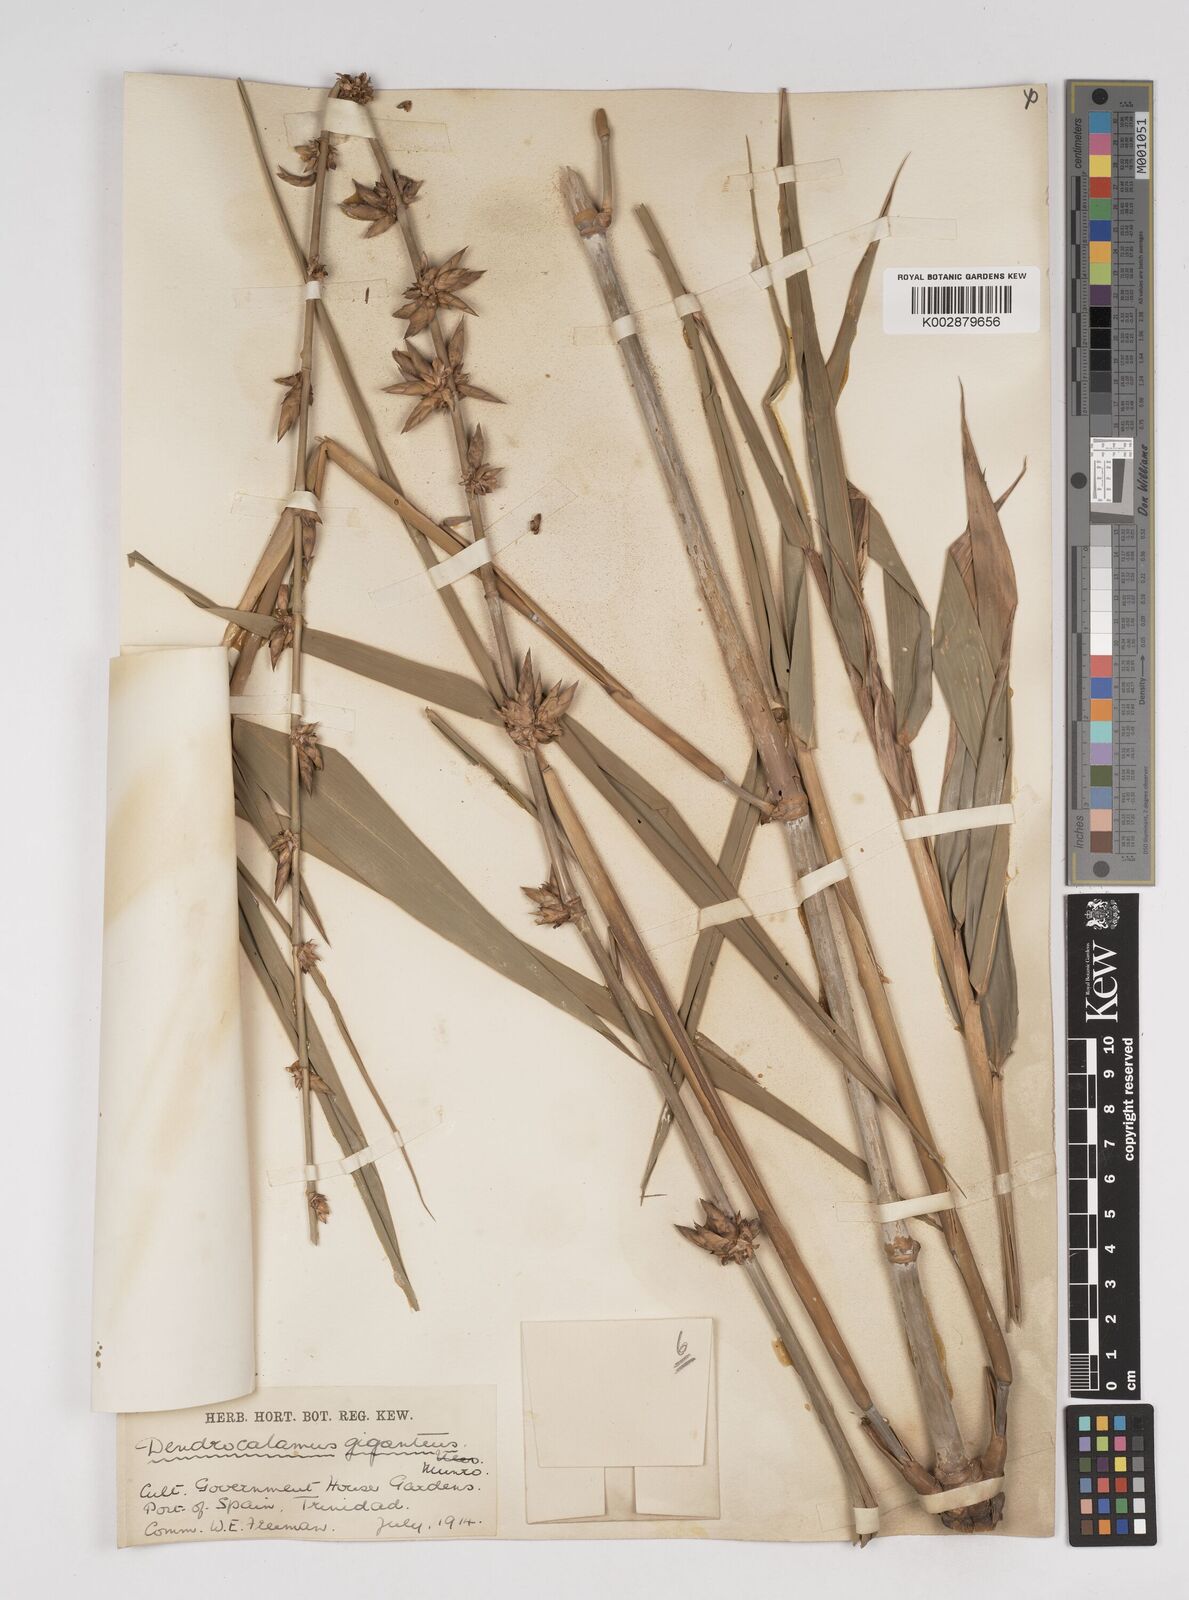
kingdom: Plantae
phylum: Tracheophyta
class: Liliopsida
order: Poales
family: Poaceae
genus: Dendrocalamus
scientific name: Dendrocalamus giganteus
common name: Giant bamboo
